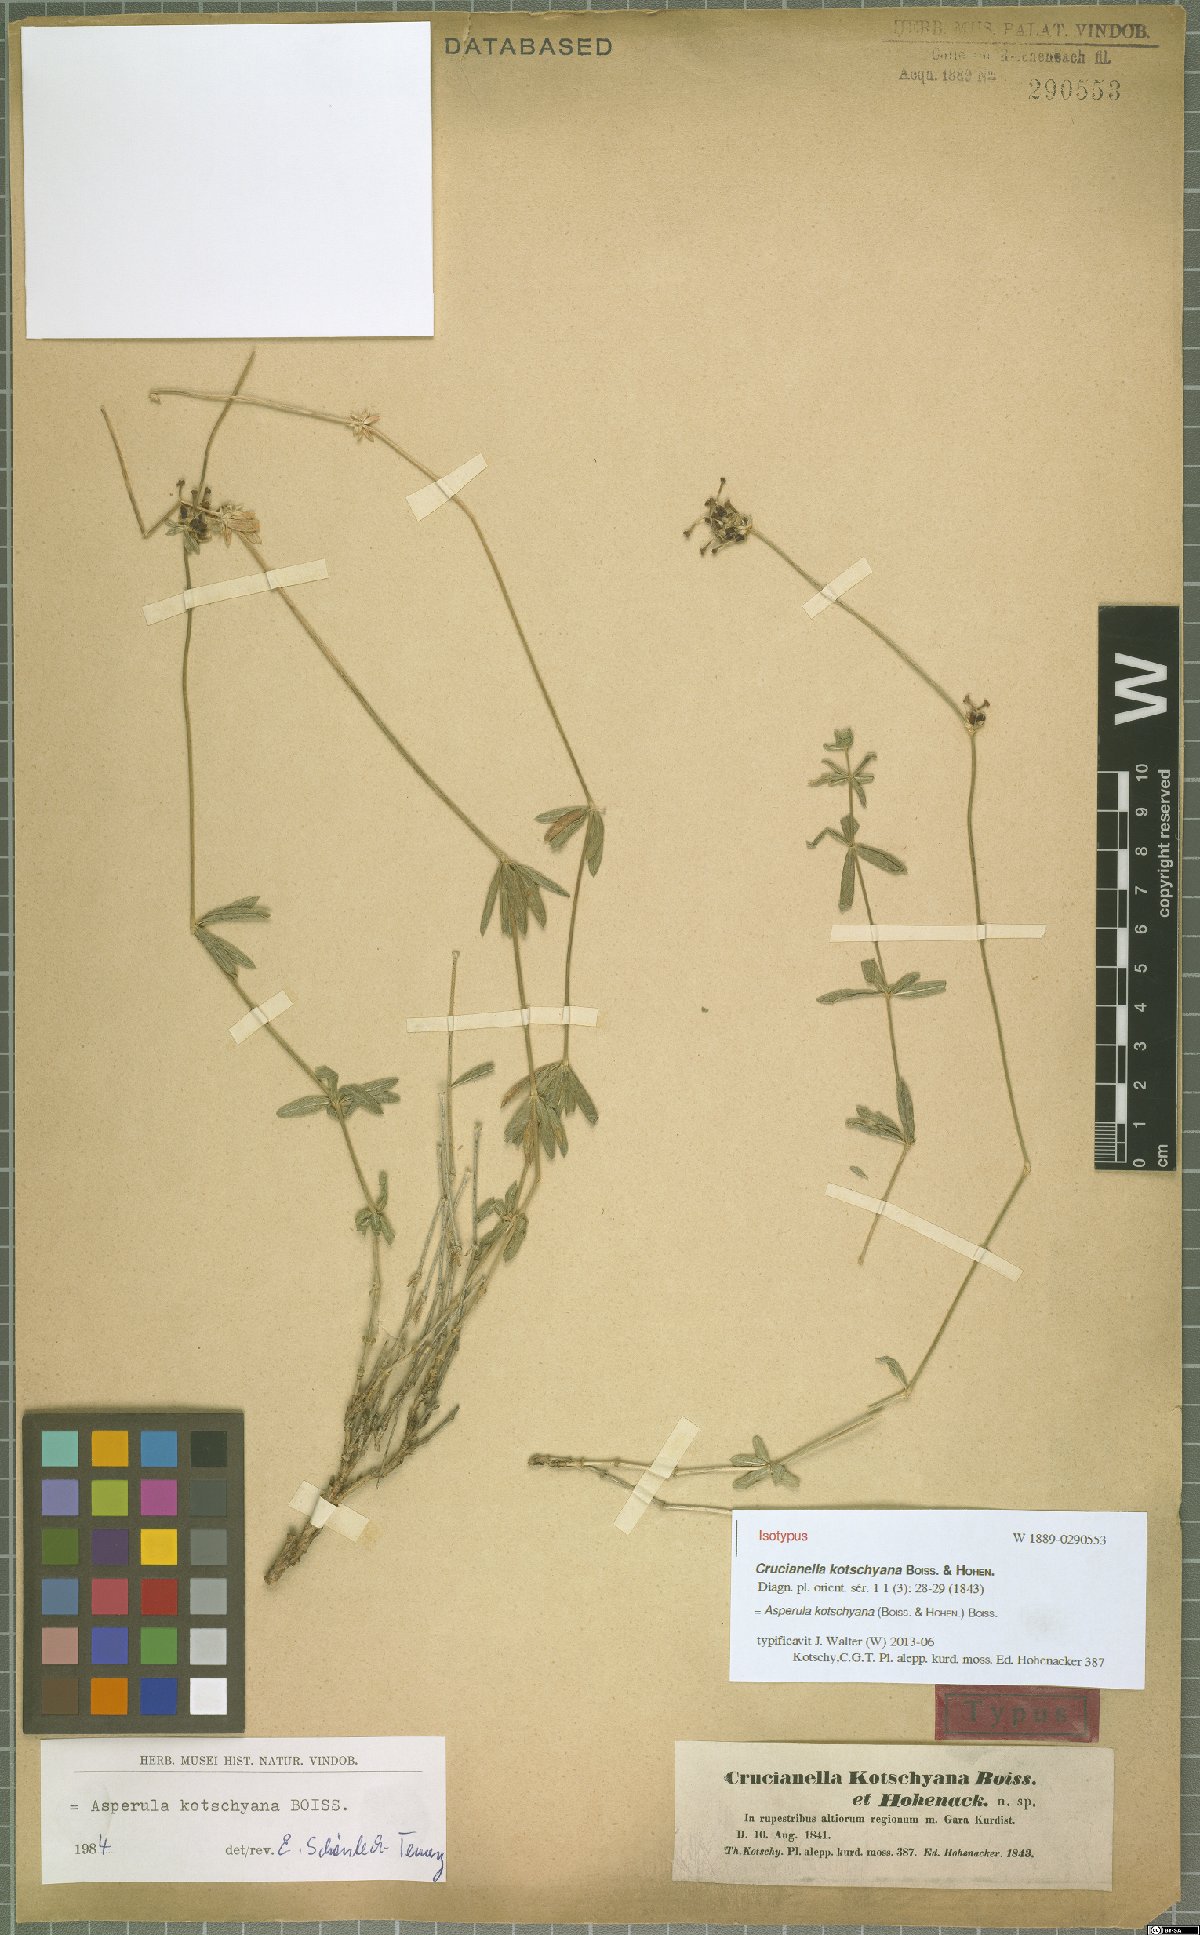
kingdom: Plantae
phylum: Tracheophyta
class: Magnoliopsida
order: Gentianales
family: Rubiaceae
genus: Asperula
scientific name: Asperula kotschyana
